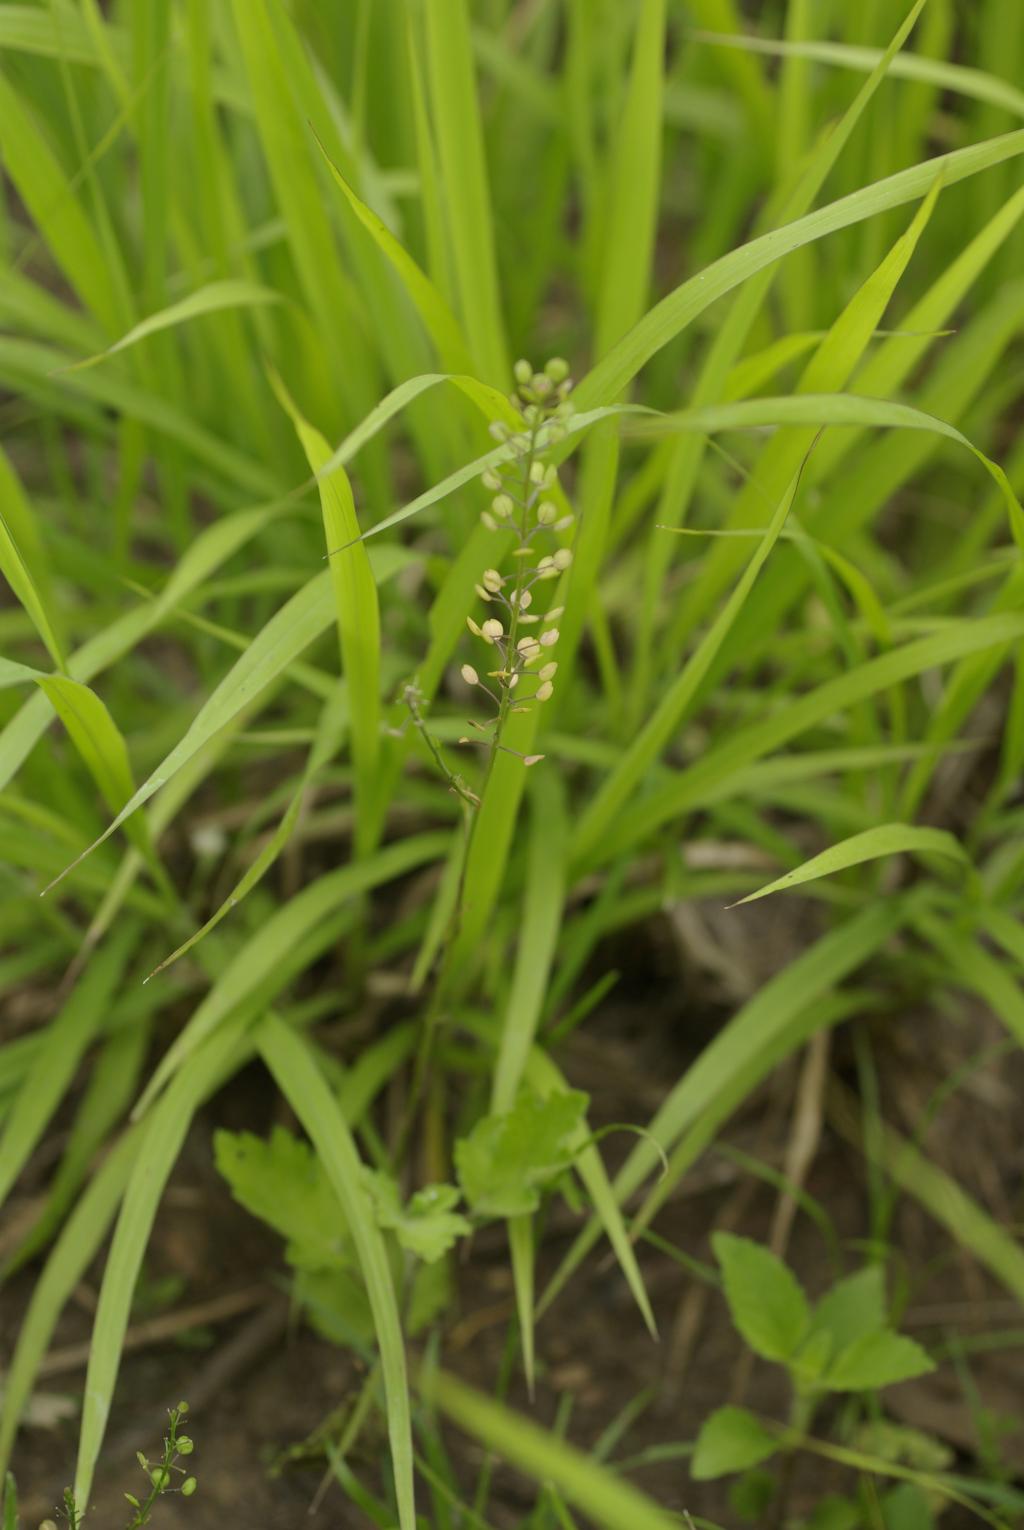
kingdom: Plantae
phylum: Tracheophyta
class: Magnoliopsida
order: Brassicales
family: Brassicaceae
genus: Lepidium
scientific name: Lepidium virginicum
